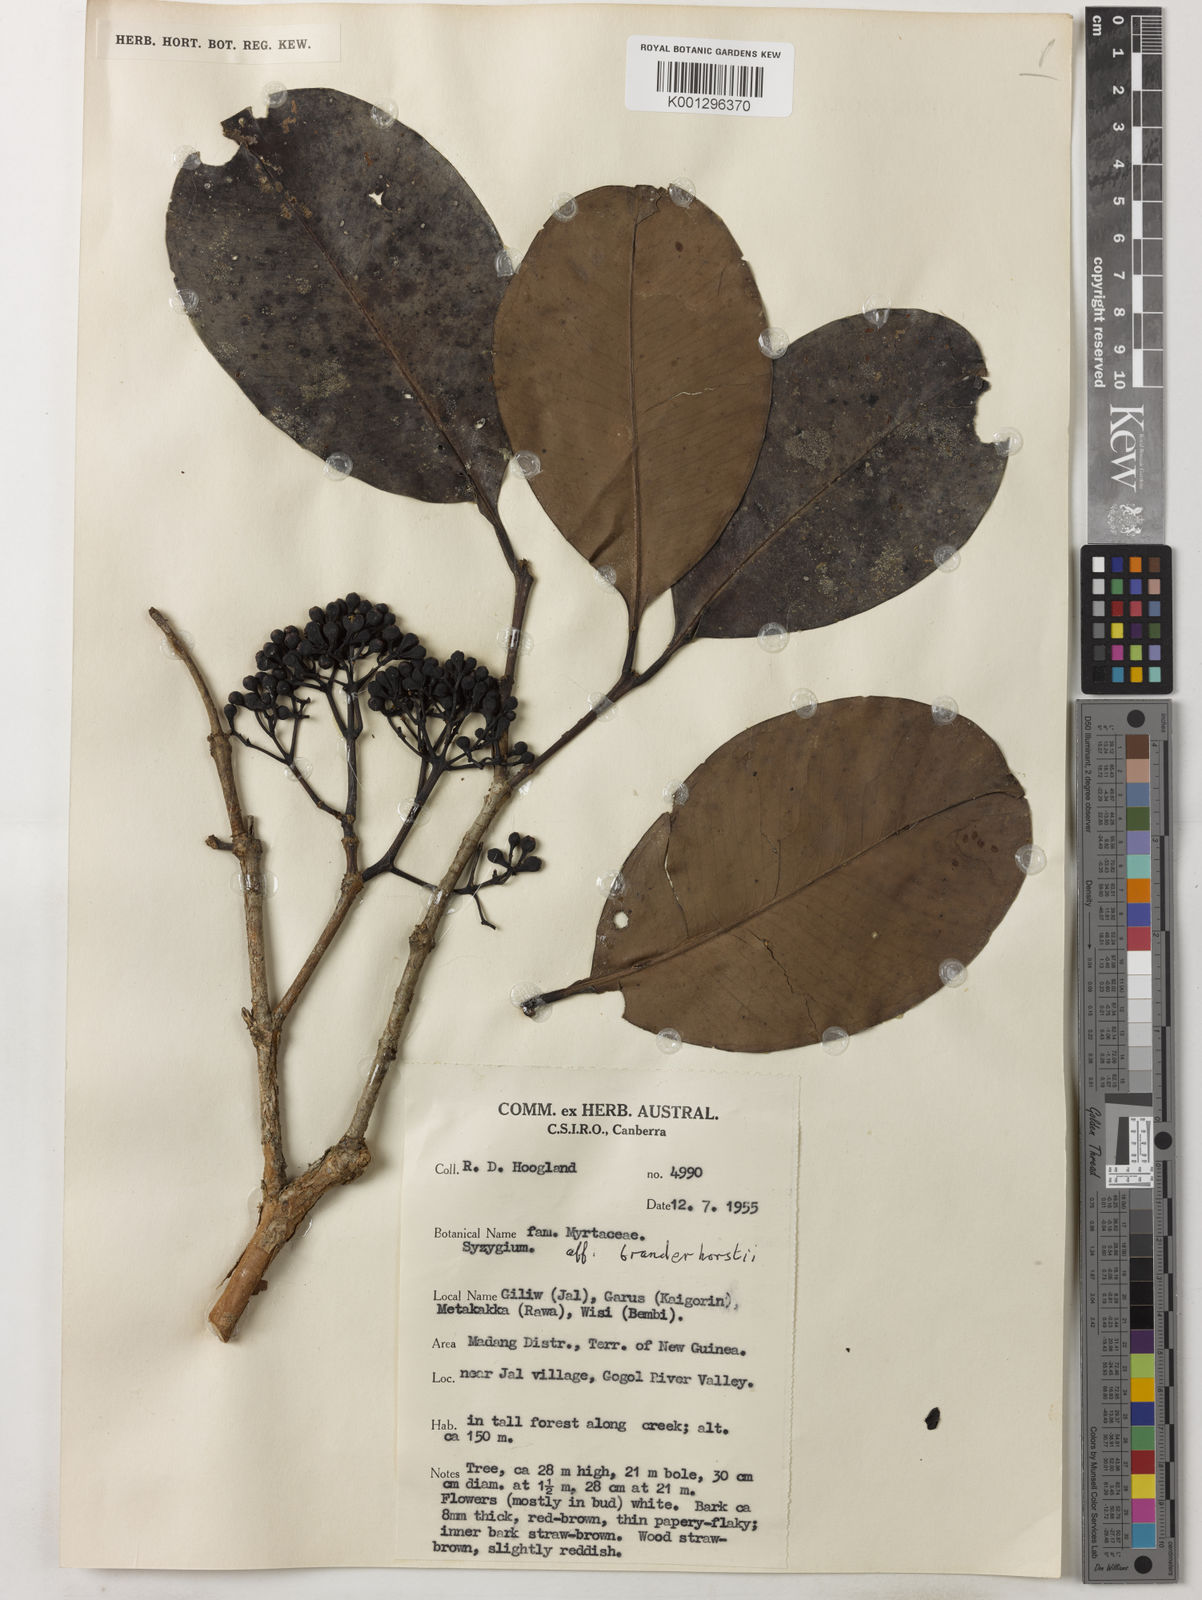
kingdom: Plantae
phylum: Tracheophyta
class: Magnoliopsida
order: Myrtales
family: Myrtaceae
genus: Syzygium
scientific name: Syzygium branderhorstii
